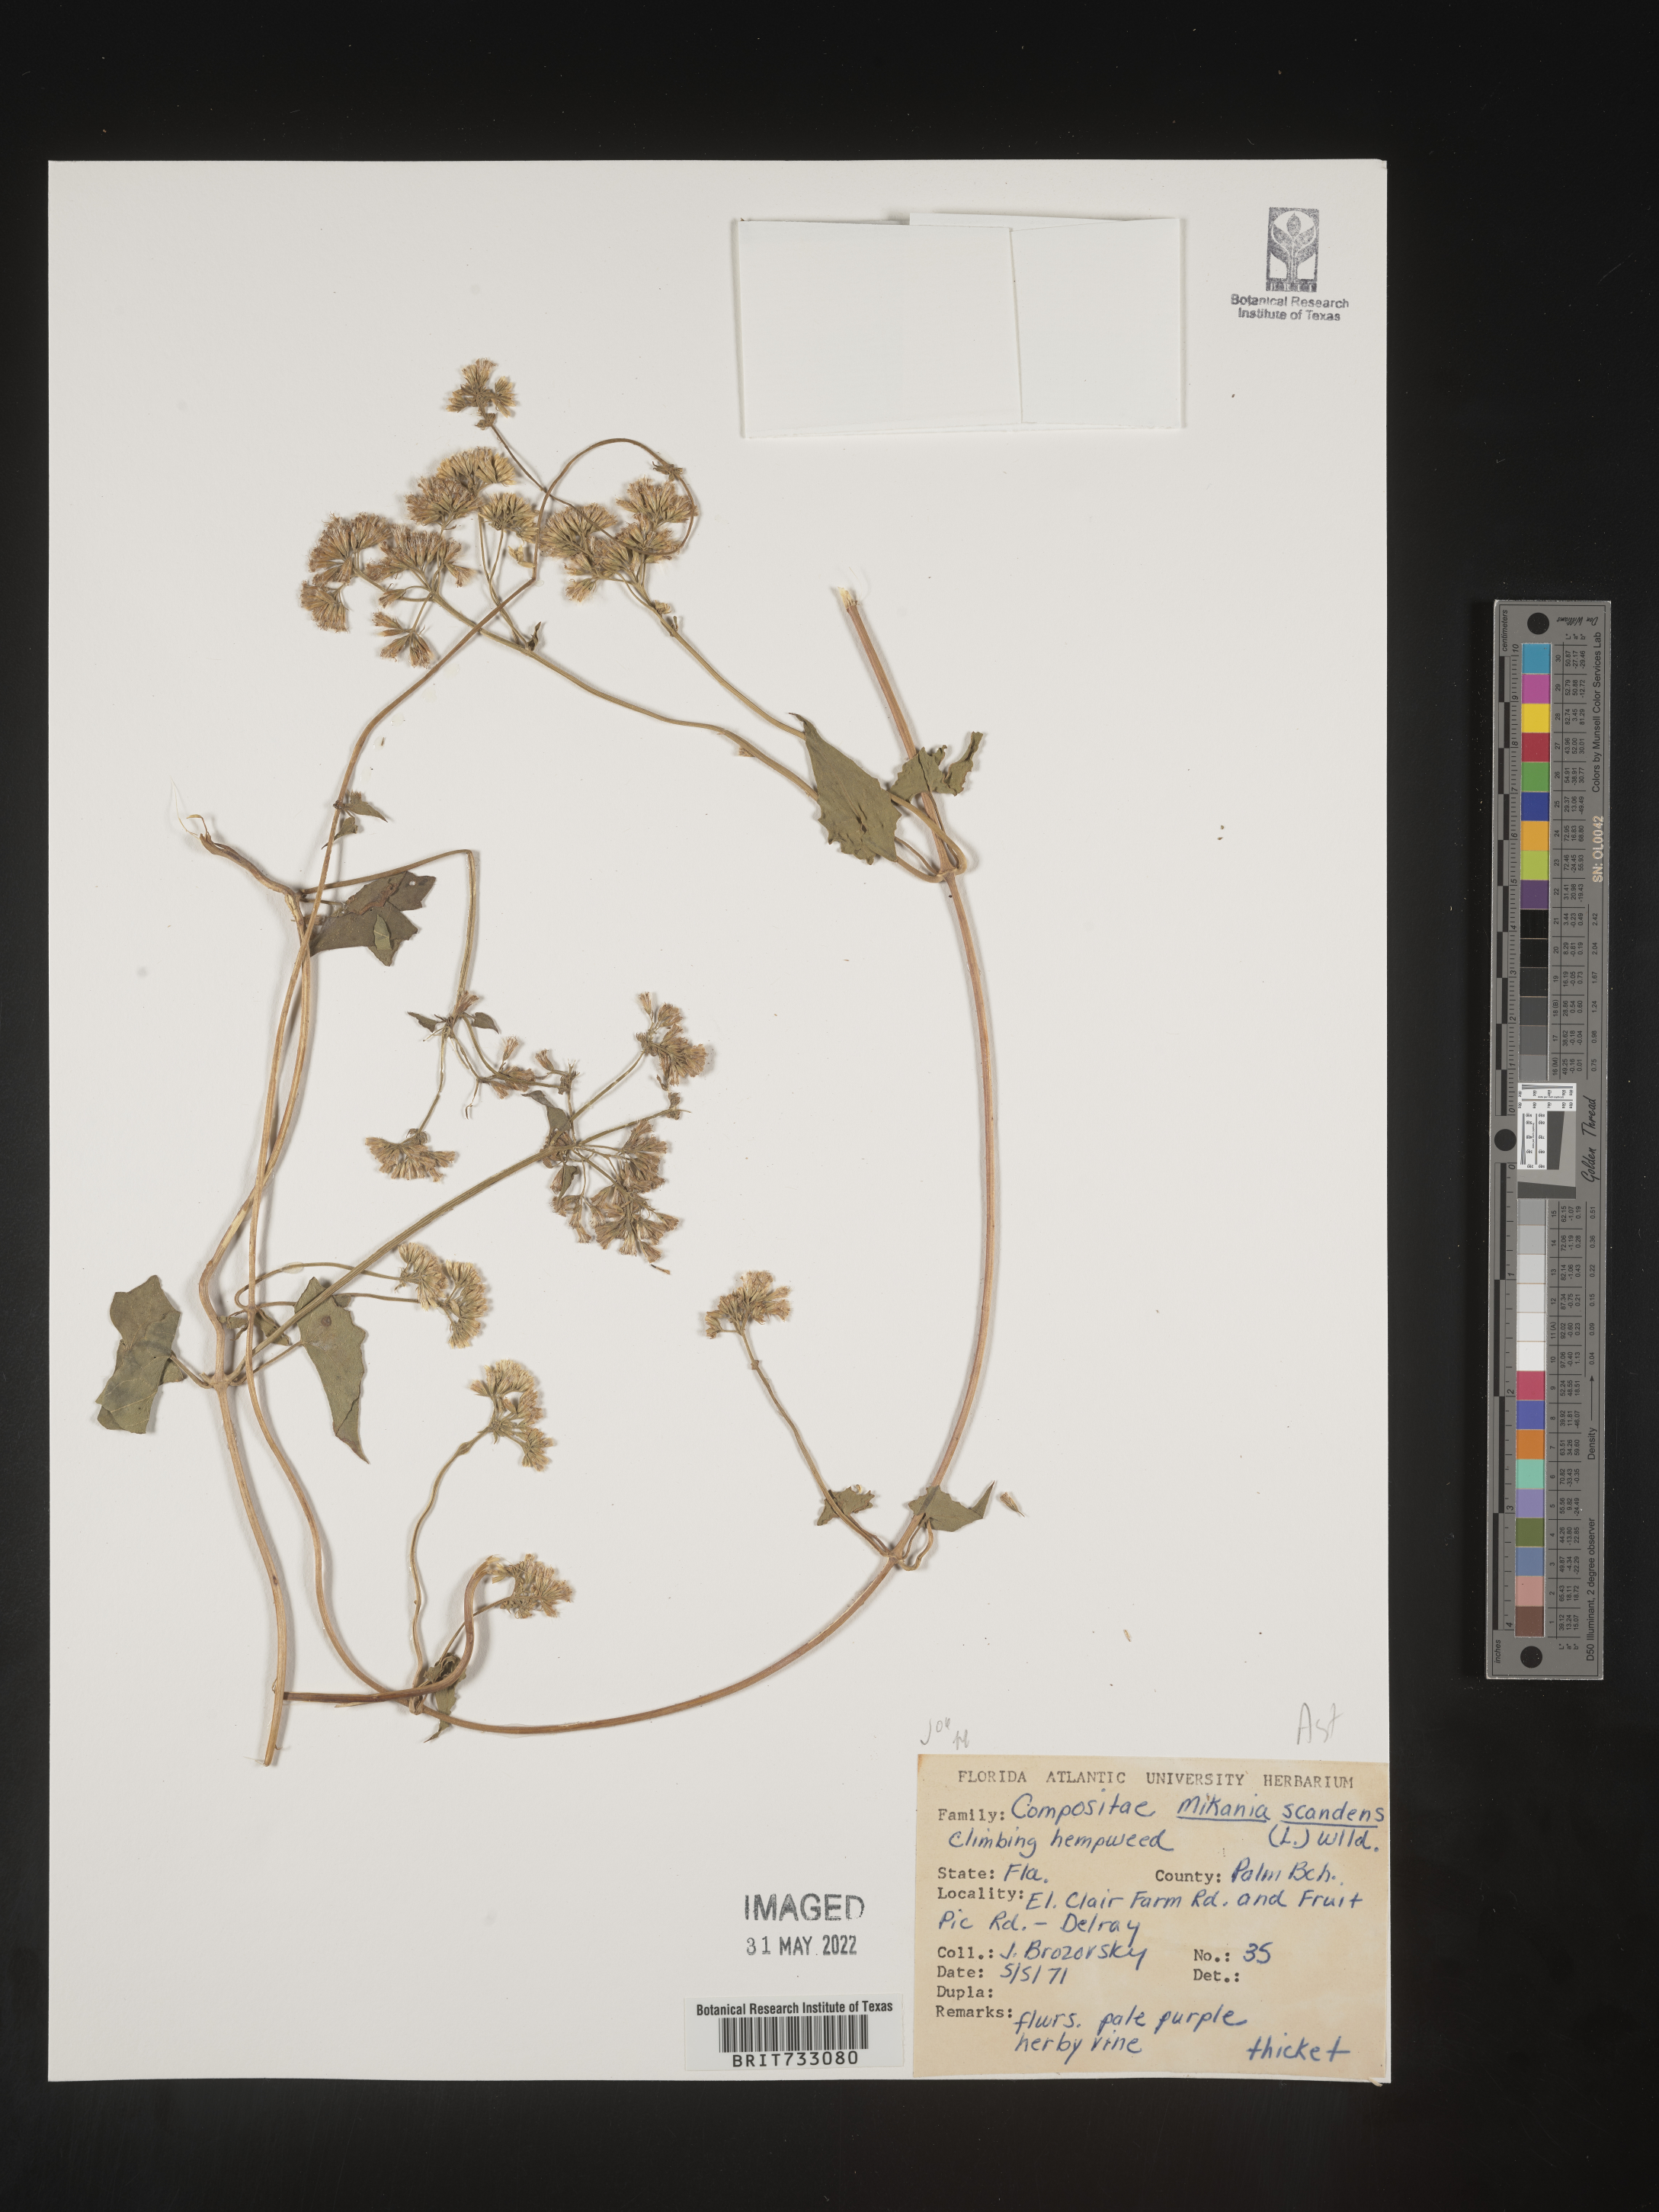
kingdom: Plantae
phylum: Tracheophyta
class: Magnoliopsida
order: Asterales
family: Asteraceae
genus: Mikania
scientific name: Mikania scandens
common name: Climbing hempvine
